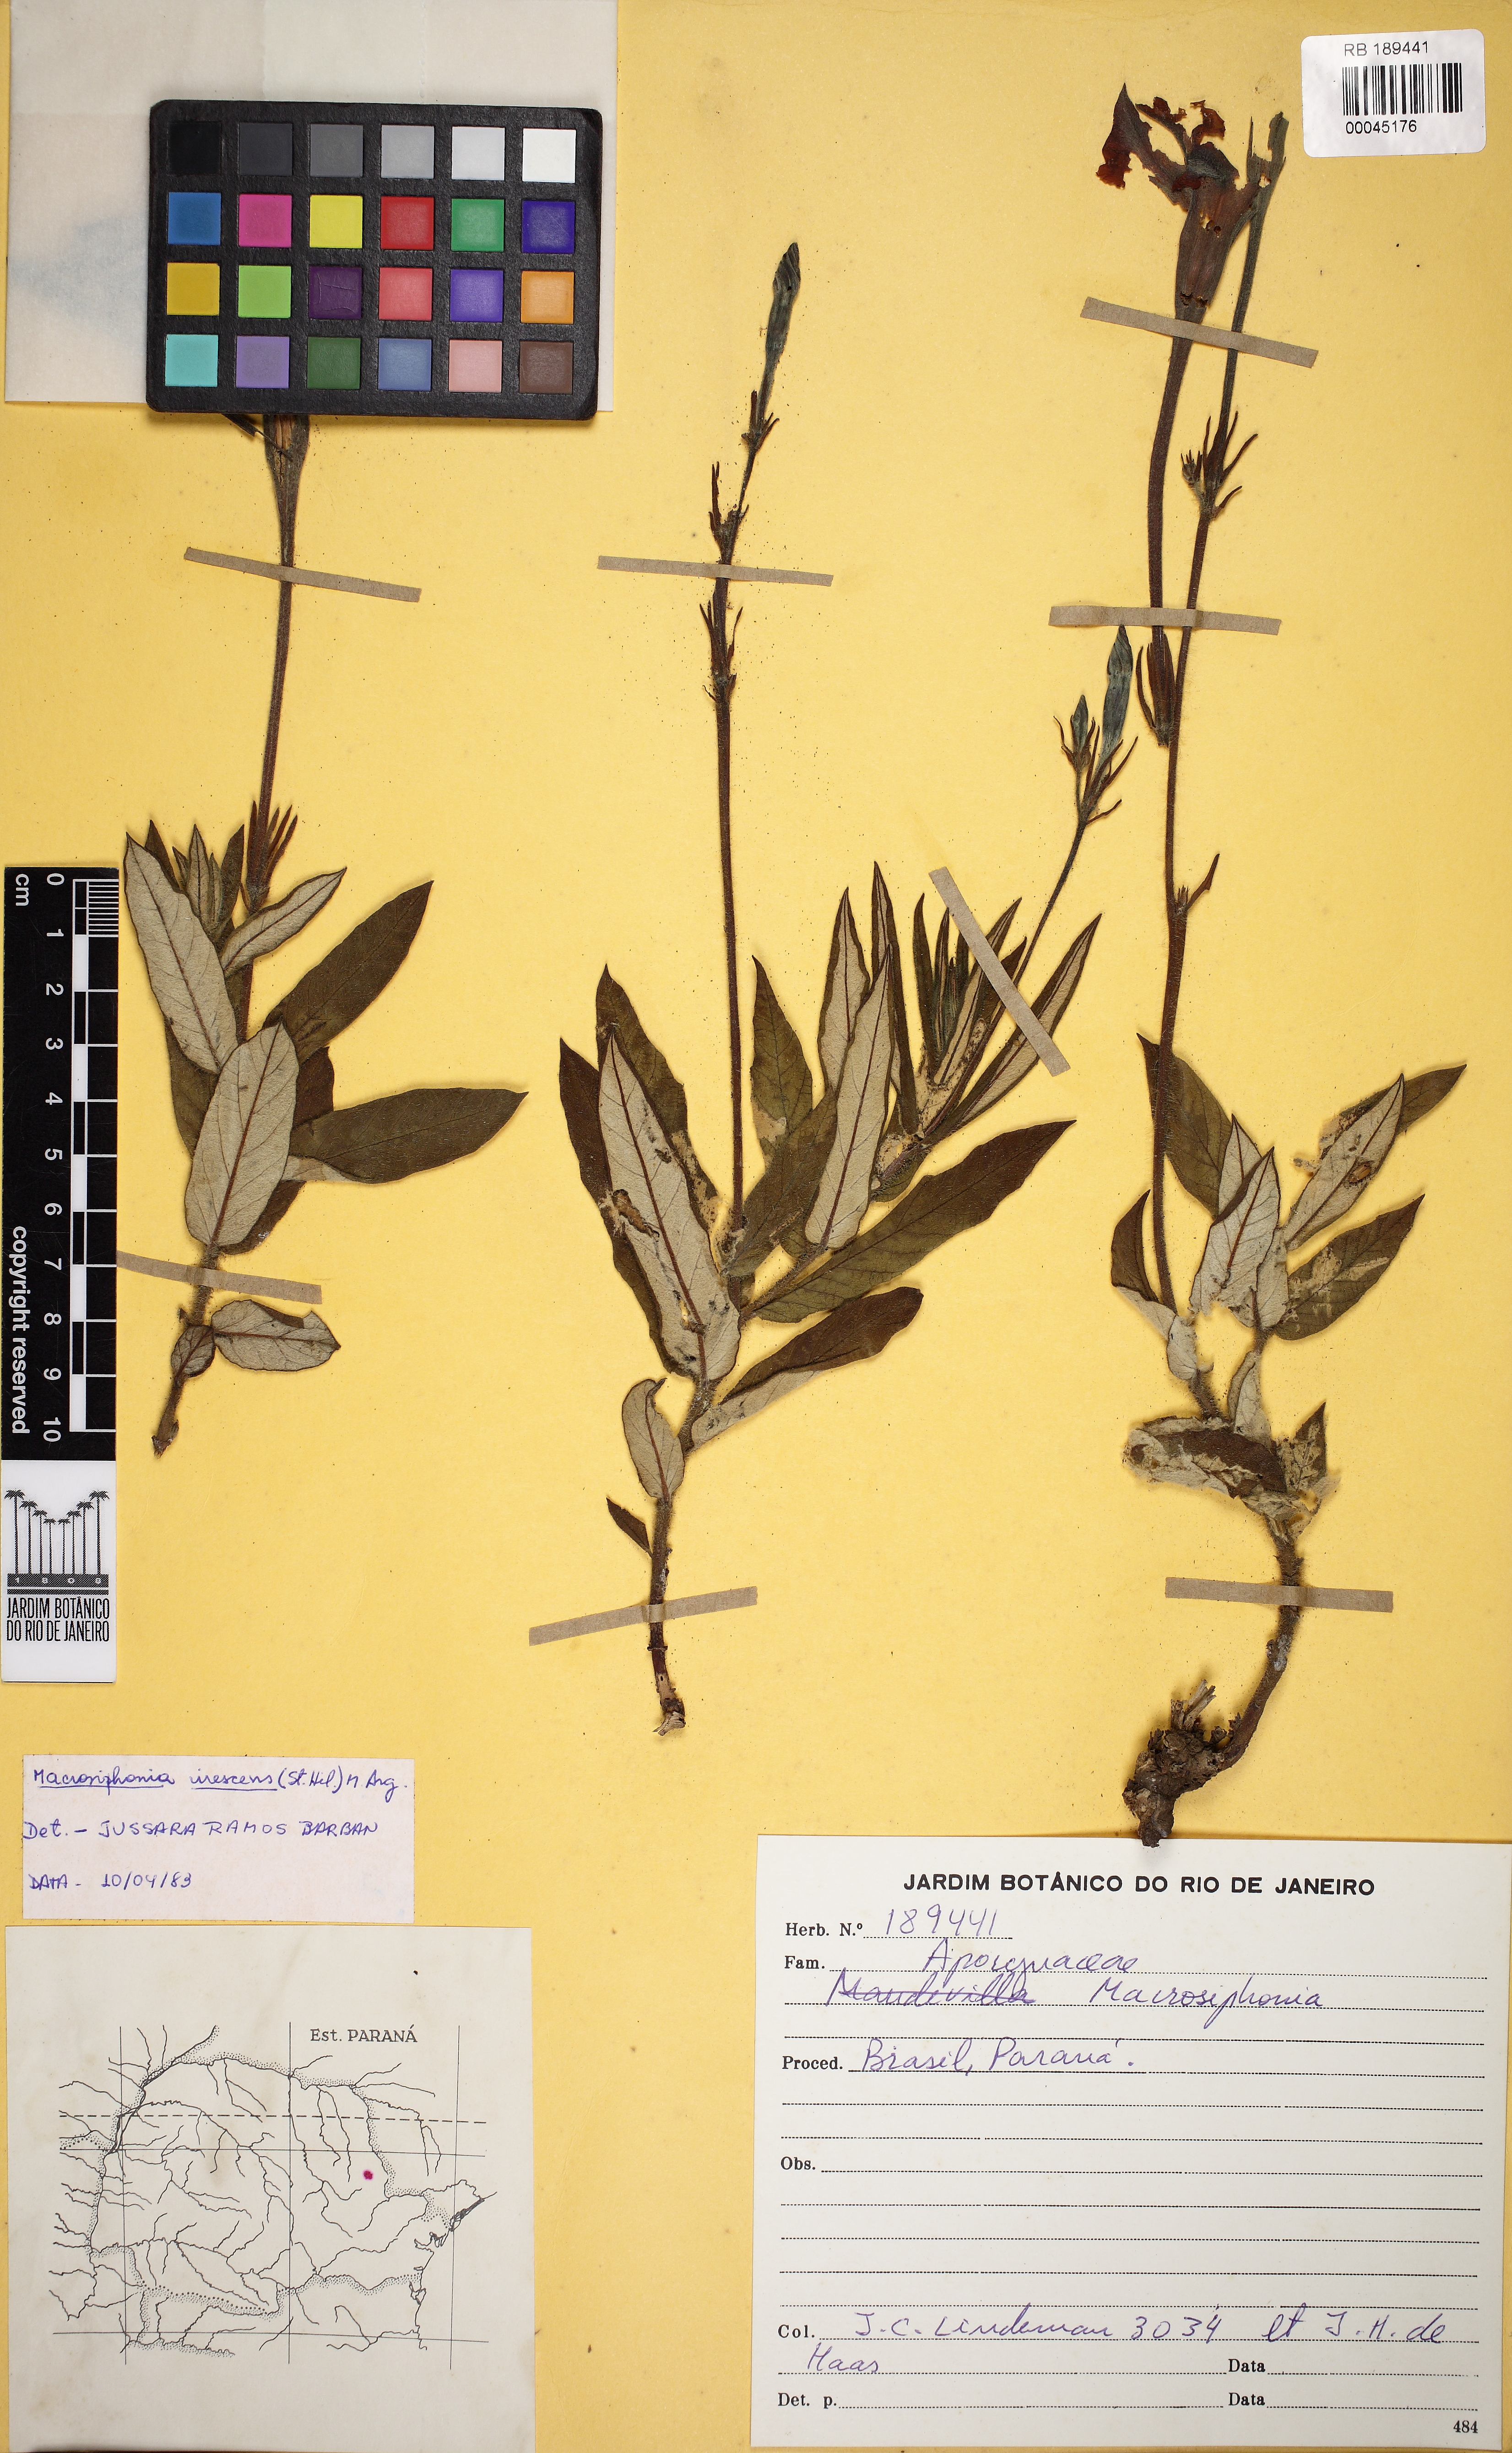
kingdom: Plantae
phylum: Tracheophyta
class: Magnoliopsida
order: Gentianales
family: Apocynaceae
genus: Mandevilla
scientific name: Mandevilla virescens
